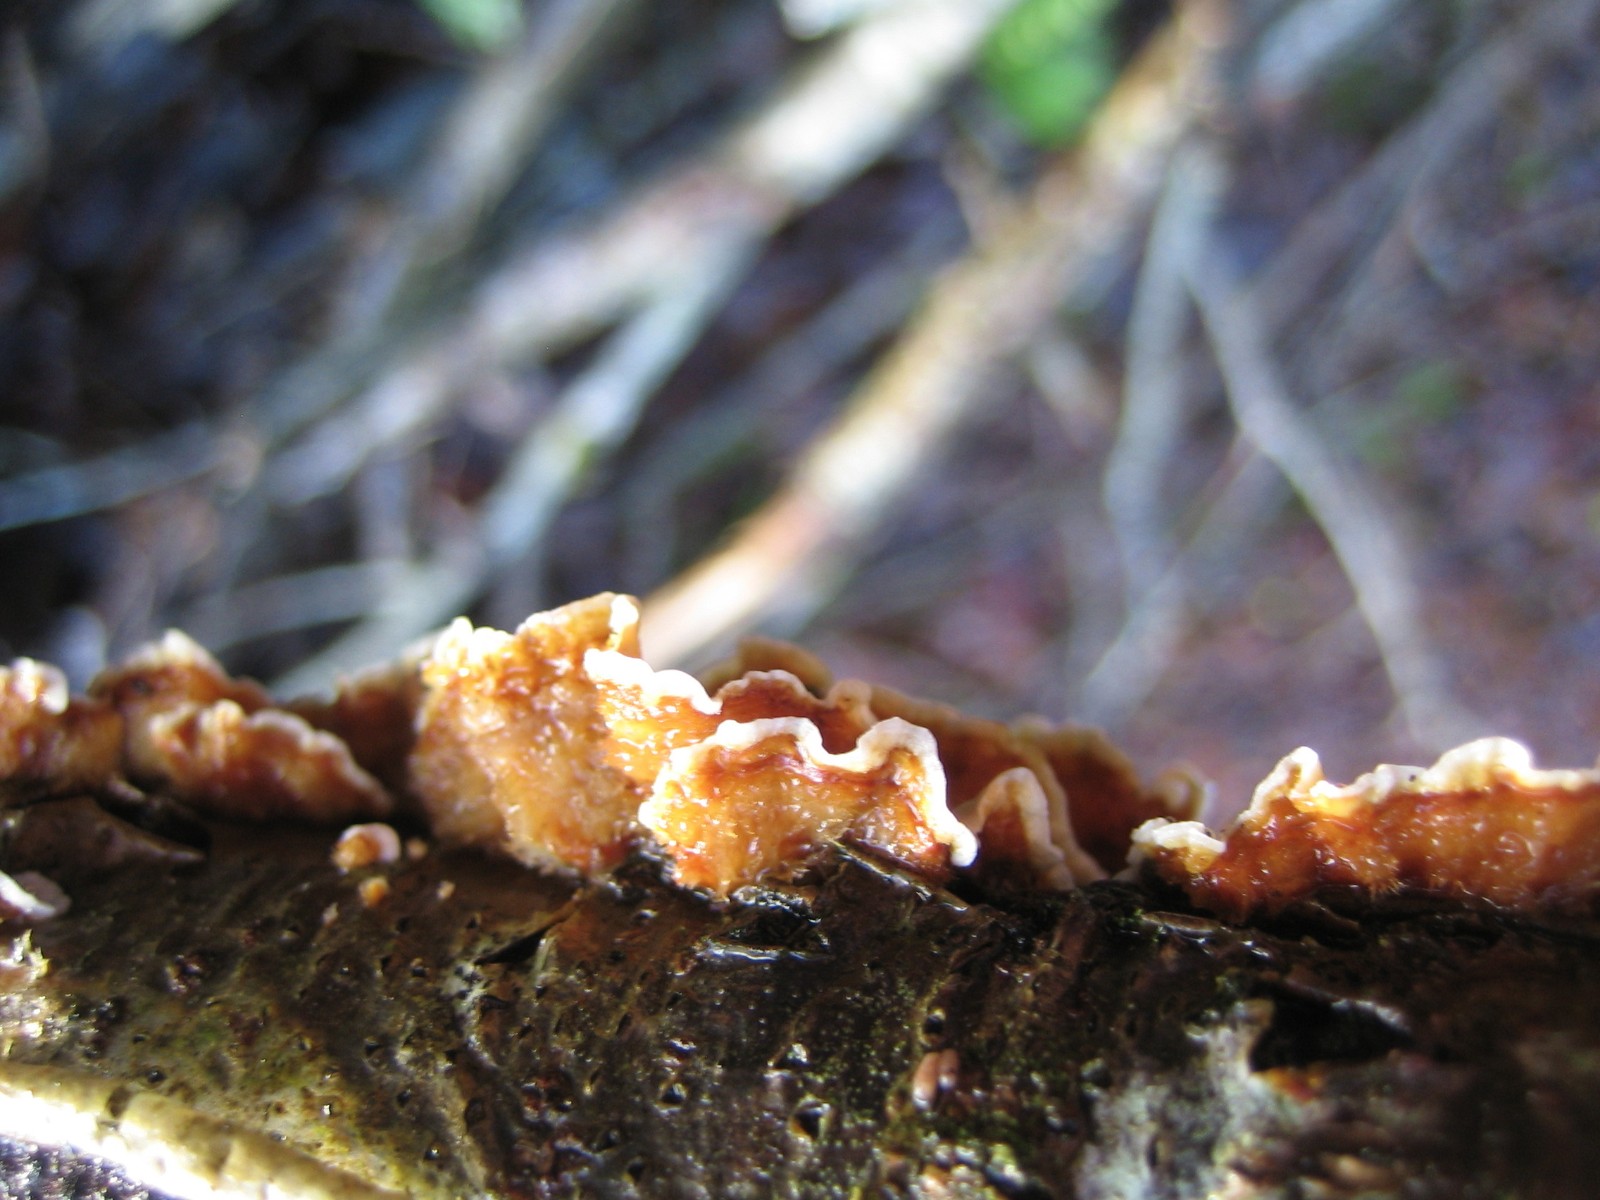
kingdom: Fungi
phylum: Basidiomycota
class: Agaricomycetes
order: Russulales
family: Stereaceae
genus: Stereum
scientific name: Stereum hirsutum
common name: håret lædersvamp
